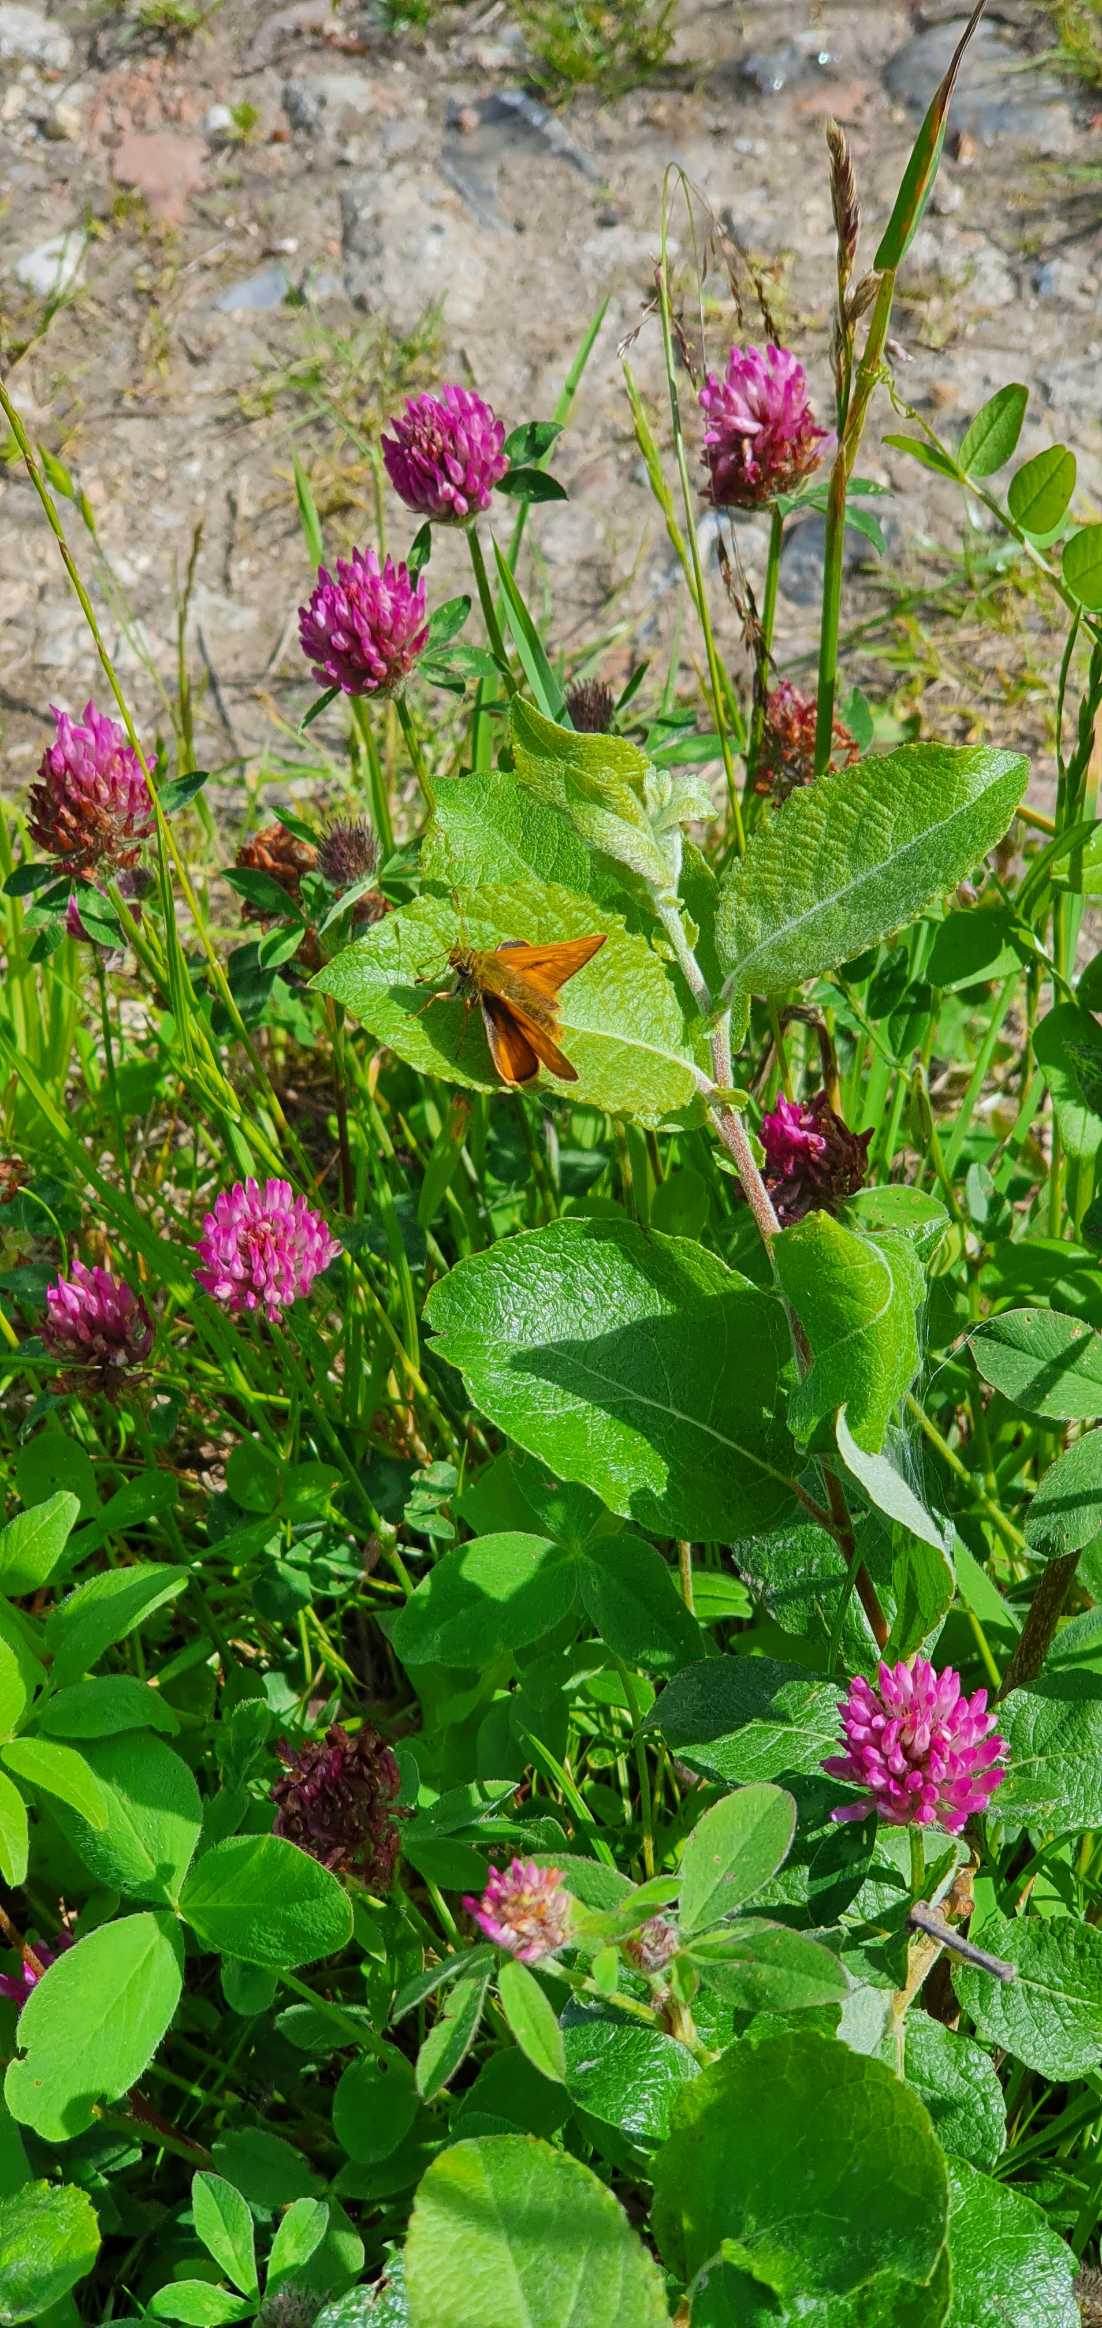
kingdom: Animalia
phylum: Arthropoda
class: Insecta
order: Lepidoptera
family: Hesperiidae
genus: Ochlodes
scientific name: Ochlodes venata
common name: Stor bredpande
